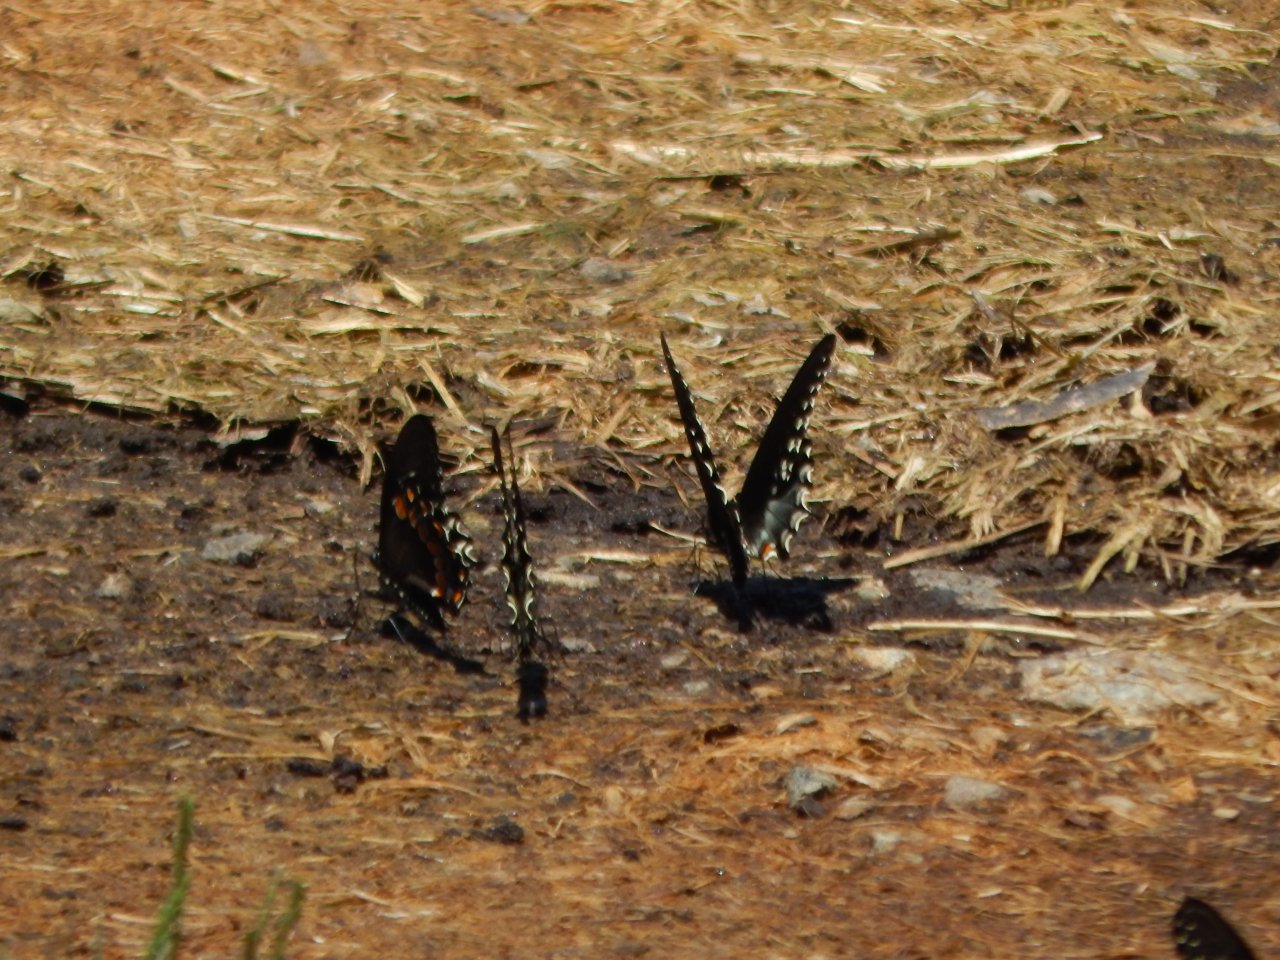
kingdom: Animalia
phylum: Arthropoda
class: Insecta
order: Lepidoptera
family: Papilionidae
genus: Pterourus
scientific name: Pterourus troilus
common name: Spicebush Swallowtail
